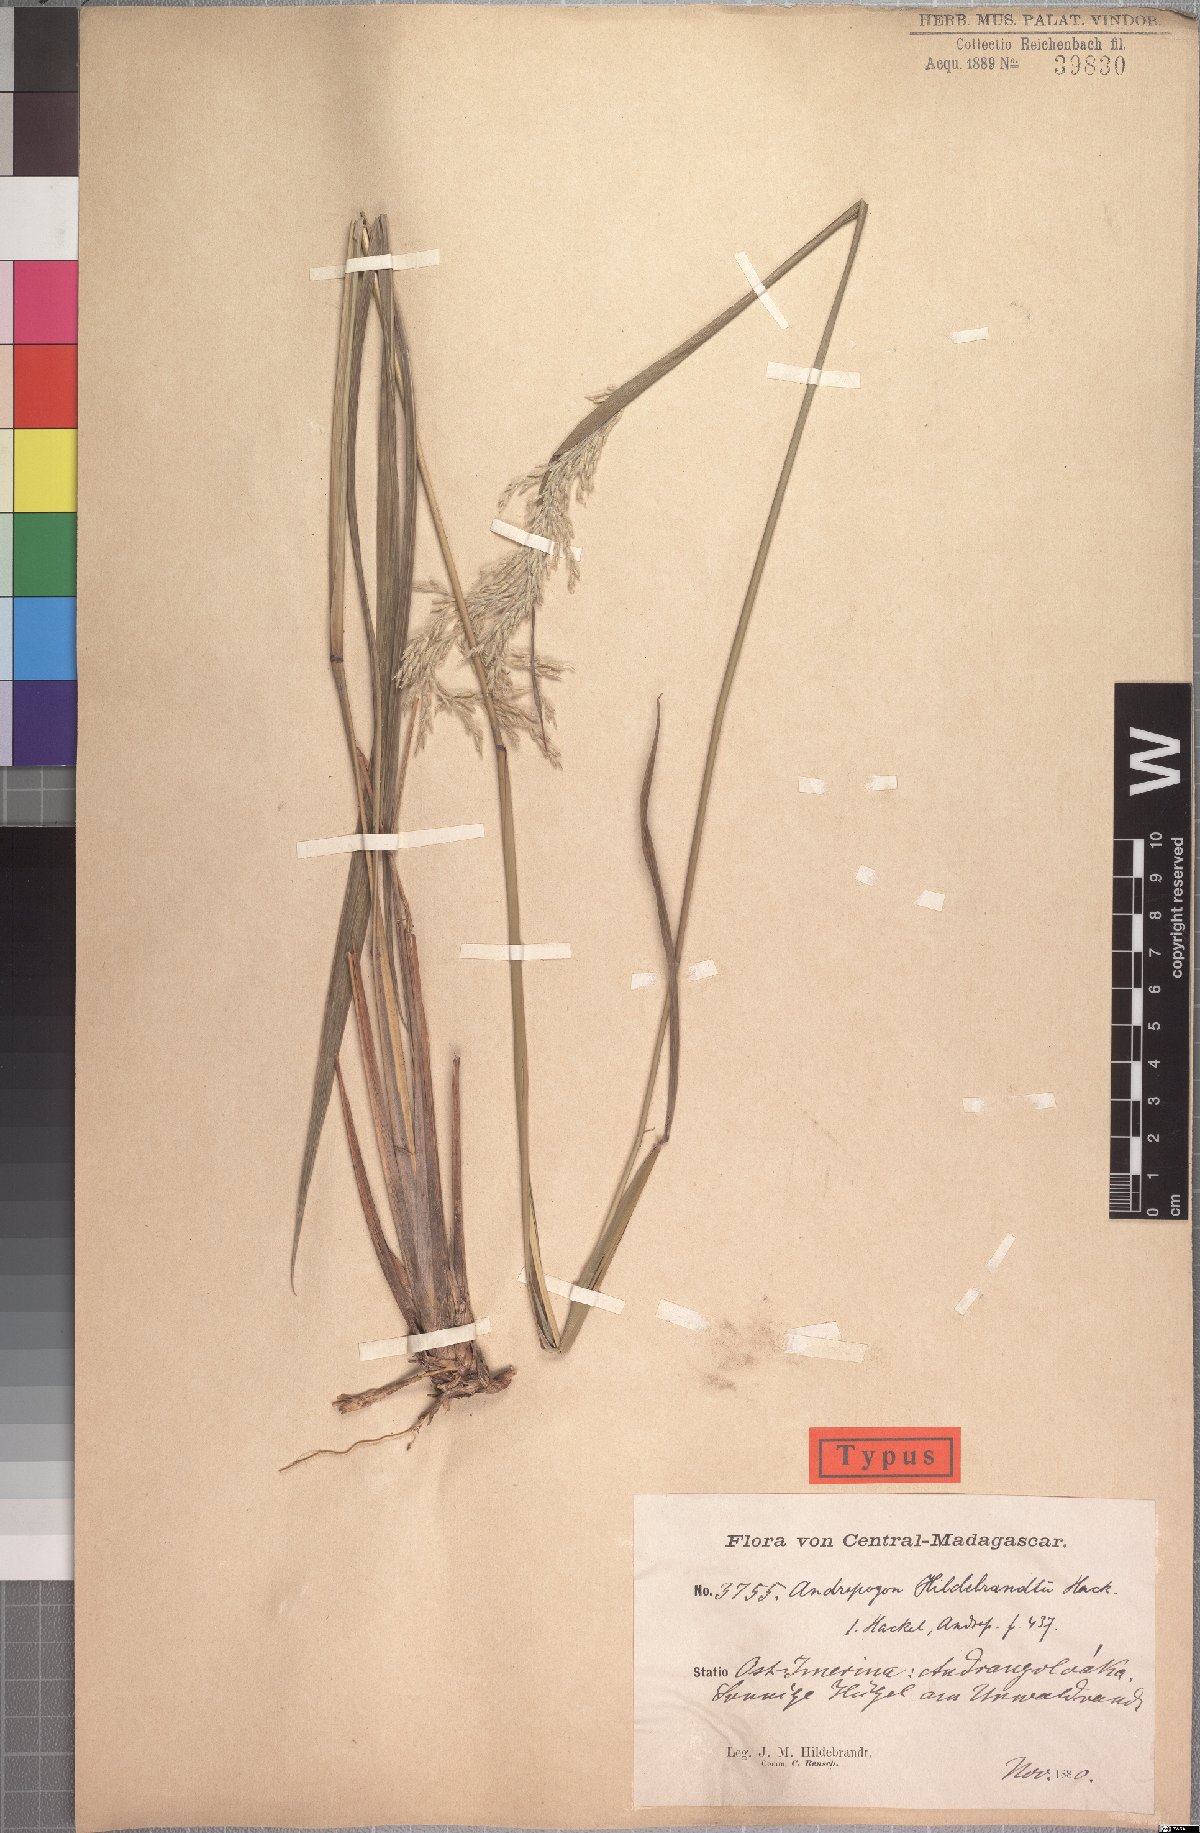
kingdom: Plantae
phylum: Tracheophyta
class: Liliopsida
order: Poales
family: Poaceae
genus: Lasiorhachis
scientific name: Lasiorhachis hildebrandtii
